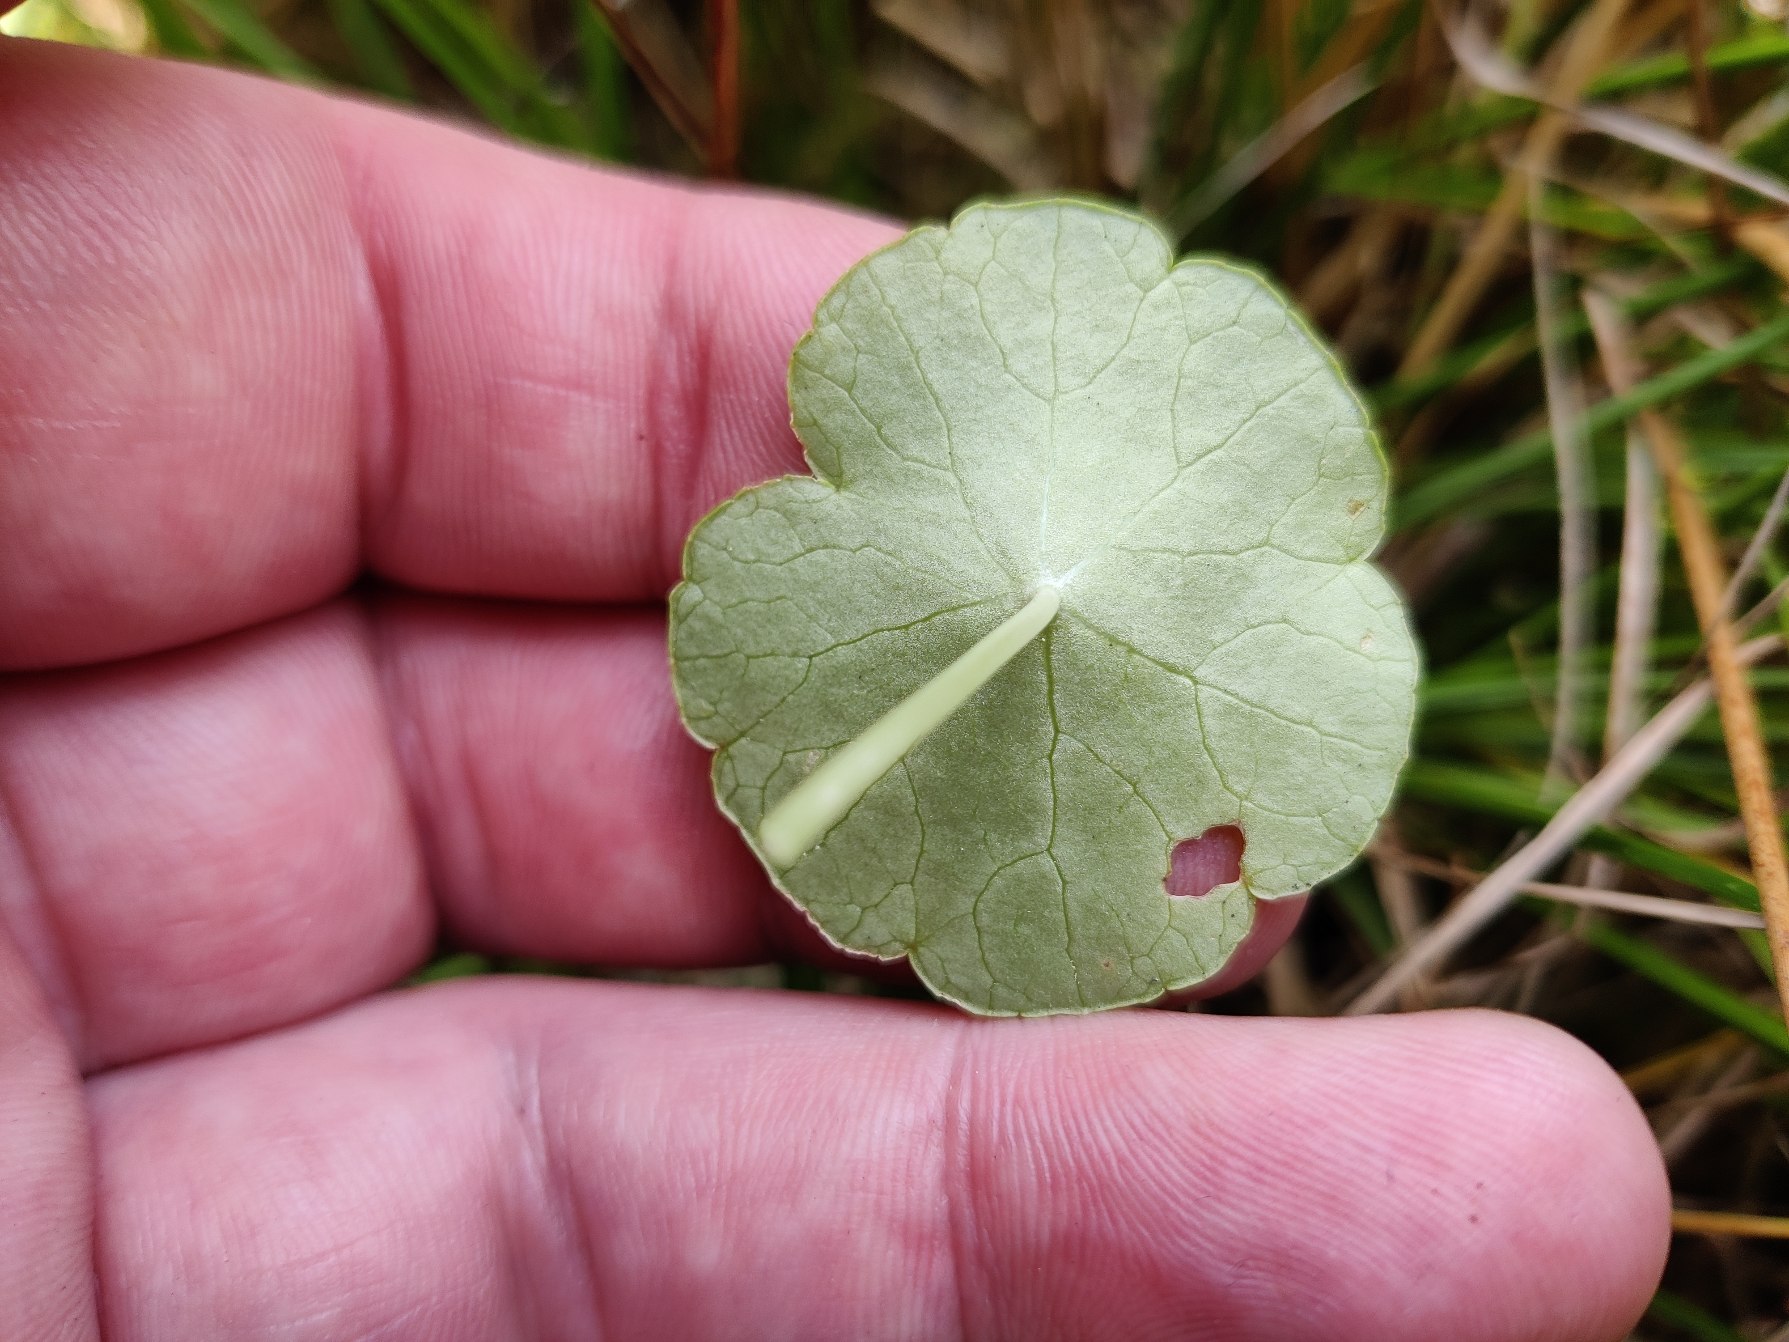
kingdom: Plantae
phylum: Tracheophyta
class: Magnoliopsida
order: Apiales
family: Araliaceae
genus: Hydrocotyle
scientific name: Hydrocotyle vulgaris
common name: Vandnavle
